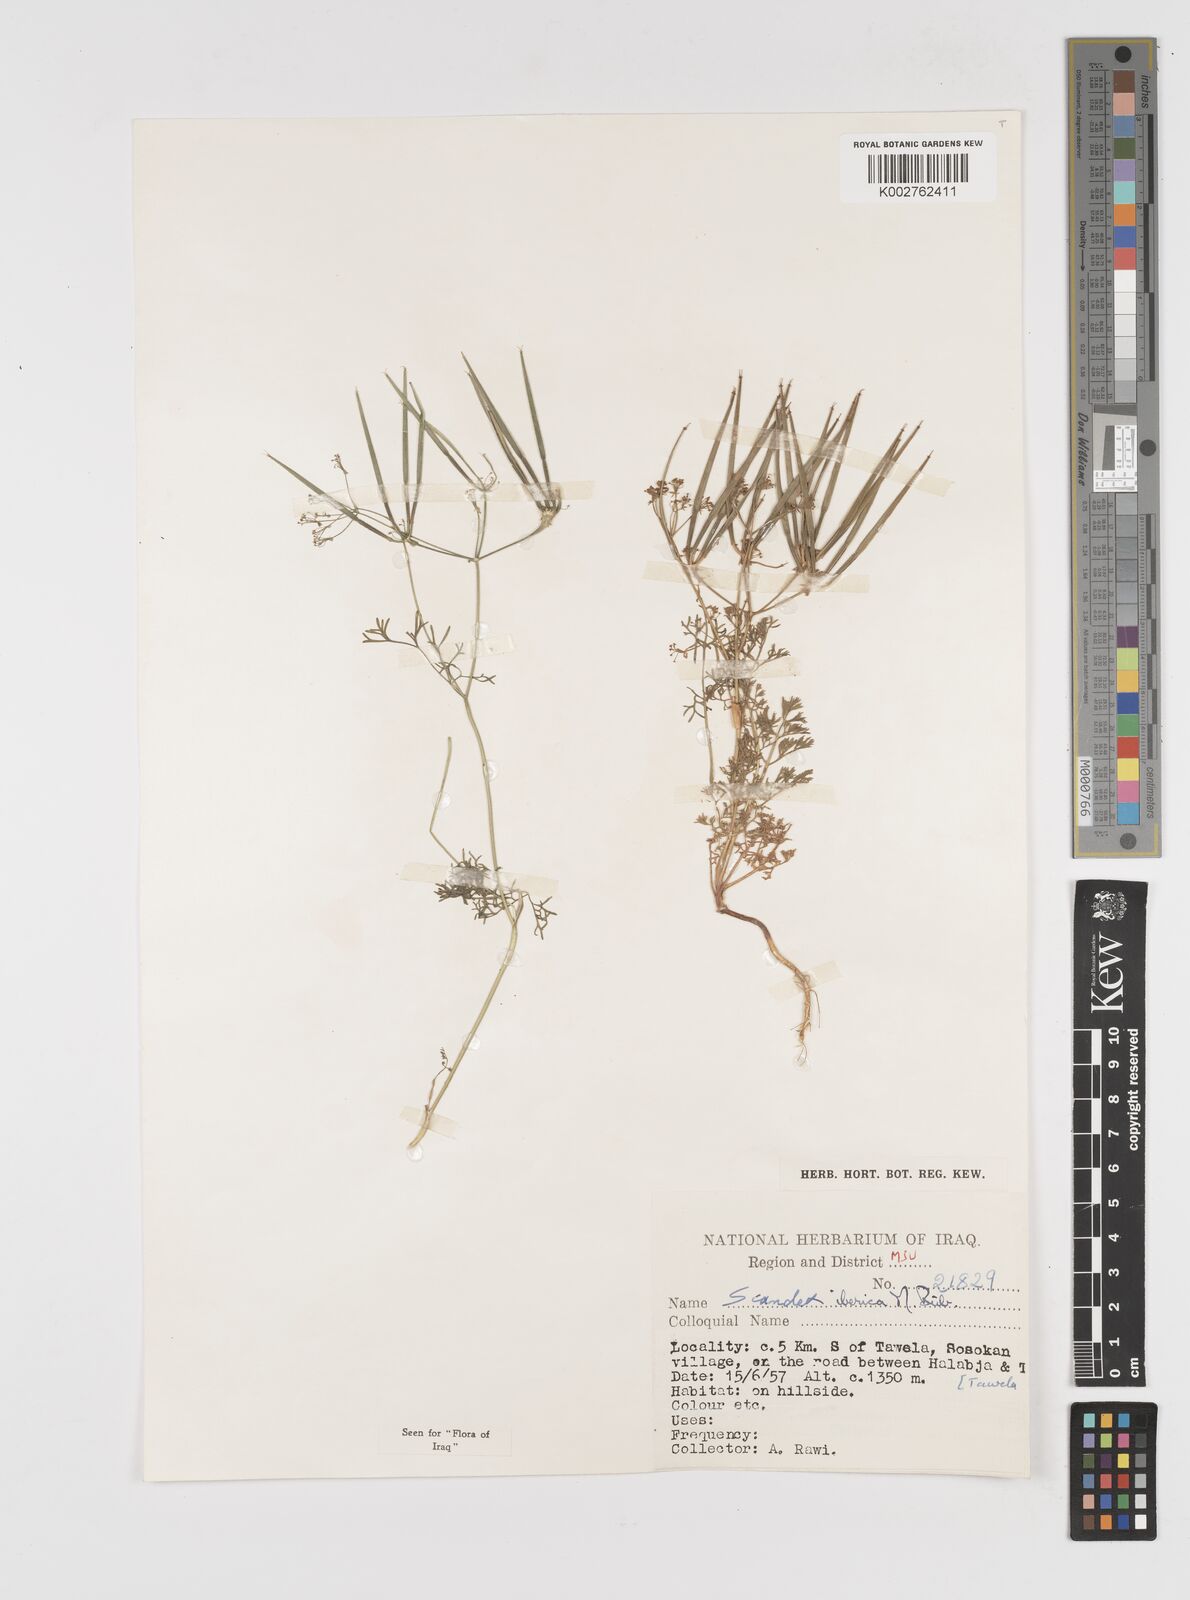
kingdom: Plantae
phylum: Tracheophyta
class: Magnoliopsida
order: Apiales
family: Apiaceae
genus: Scandix
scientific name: Scandix iberica
